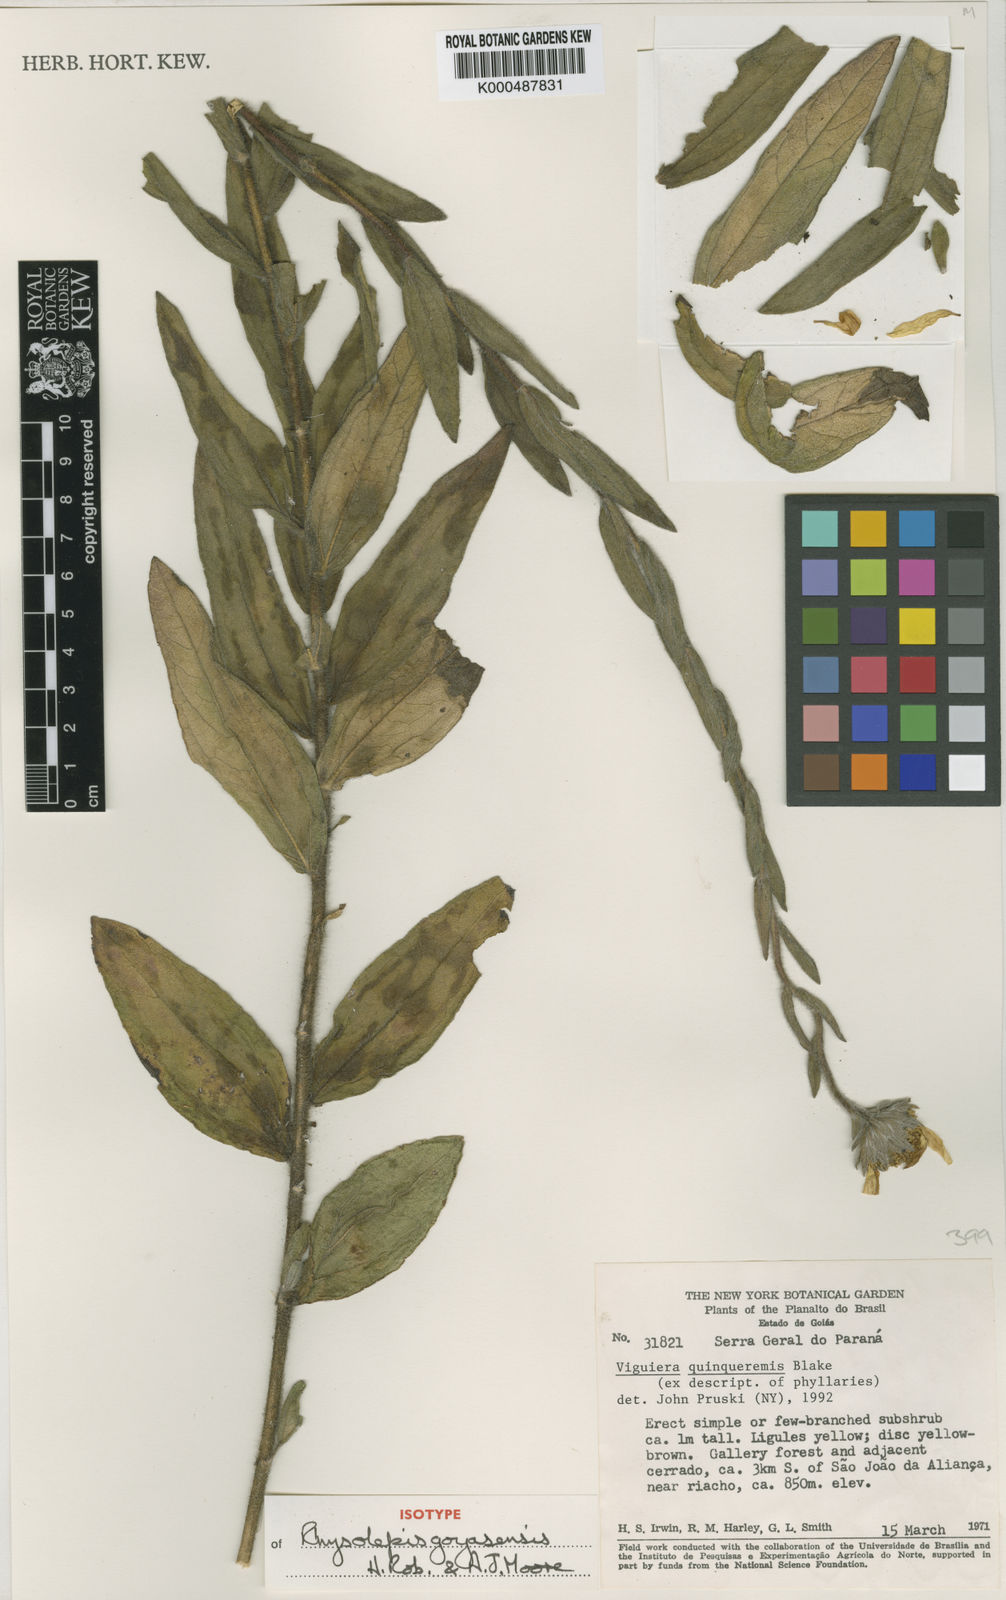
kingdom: Plantae
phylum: Tracheophyta
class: Magnoliopsida
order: Asterales
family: Asteraceae
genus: Aldama
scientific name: Aldama bracteata
